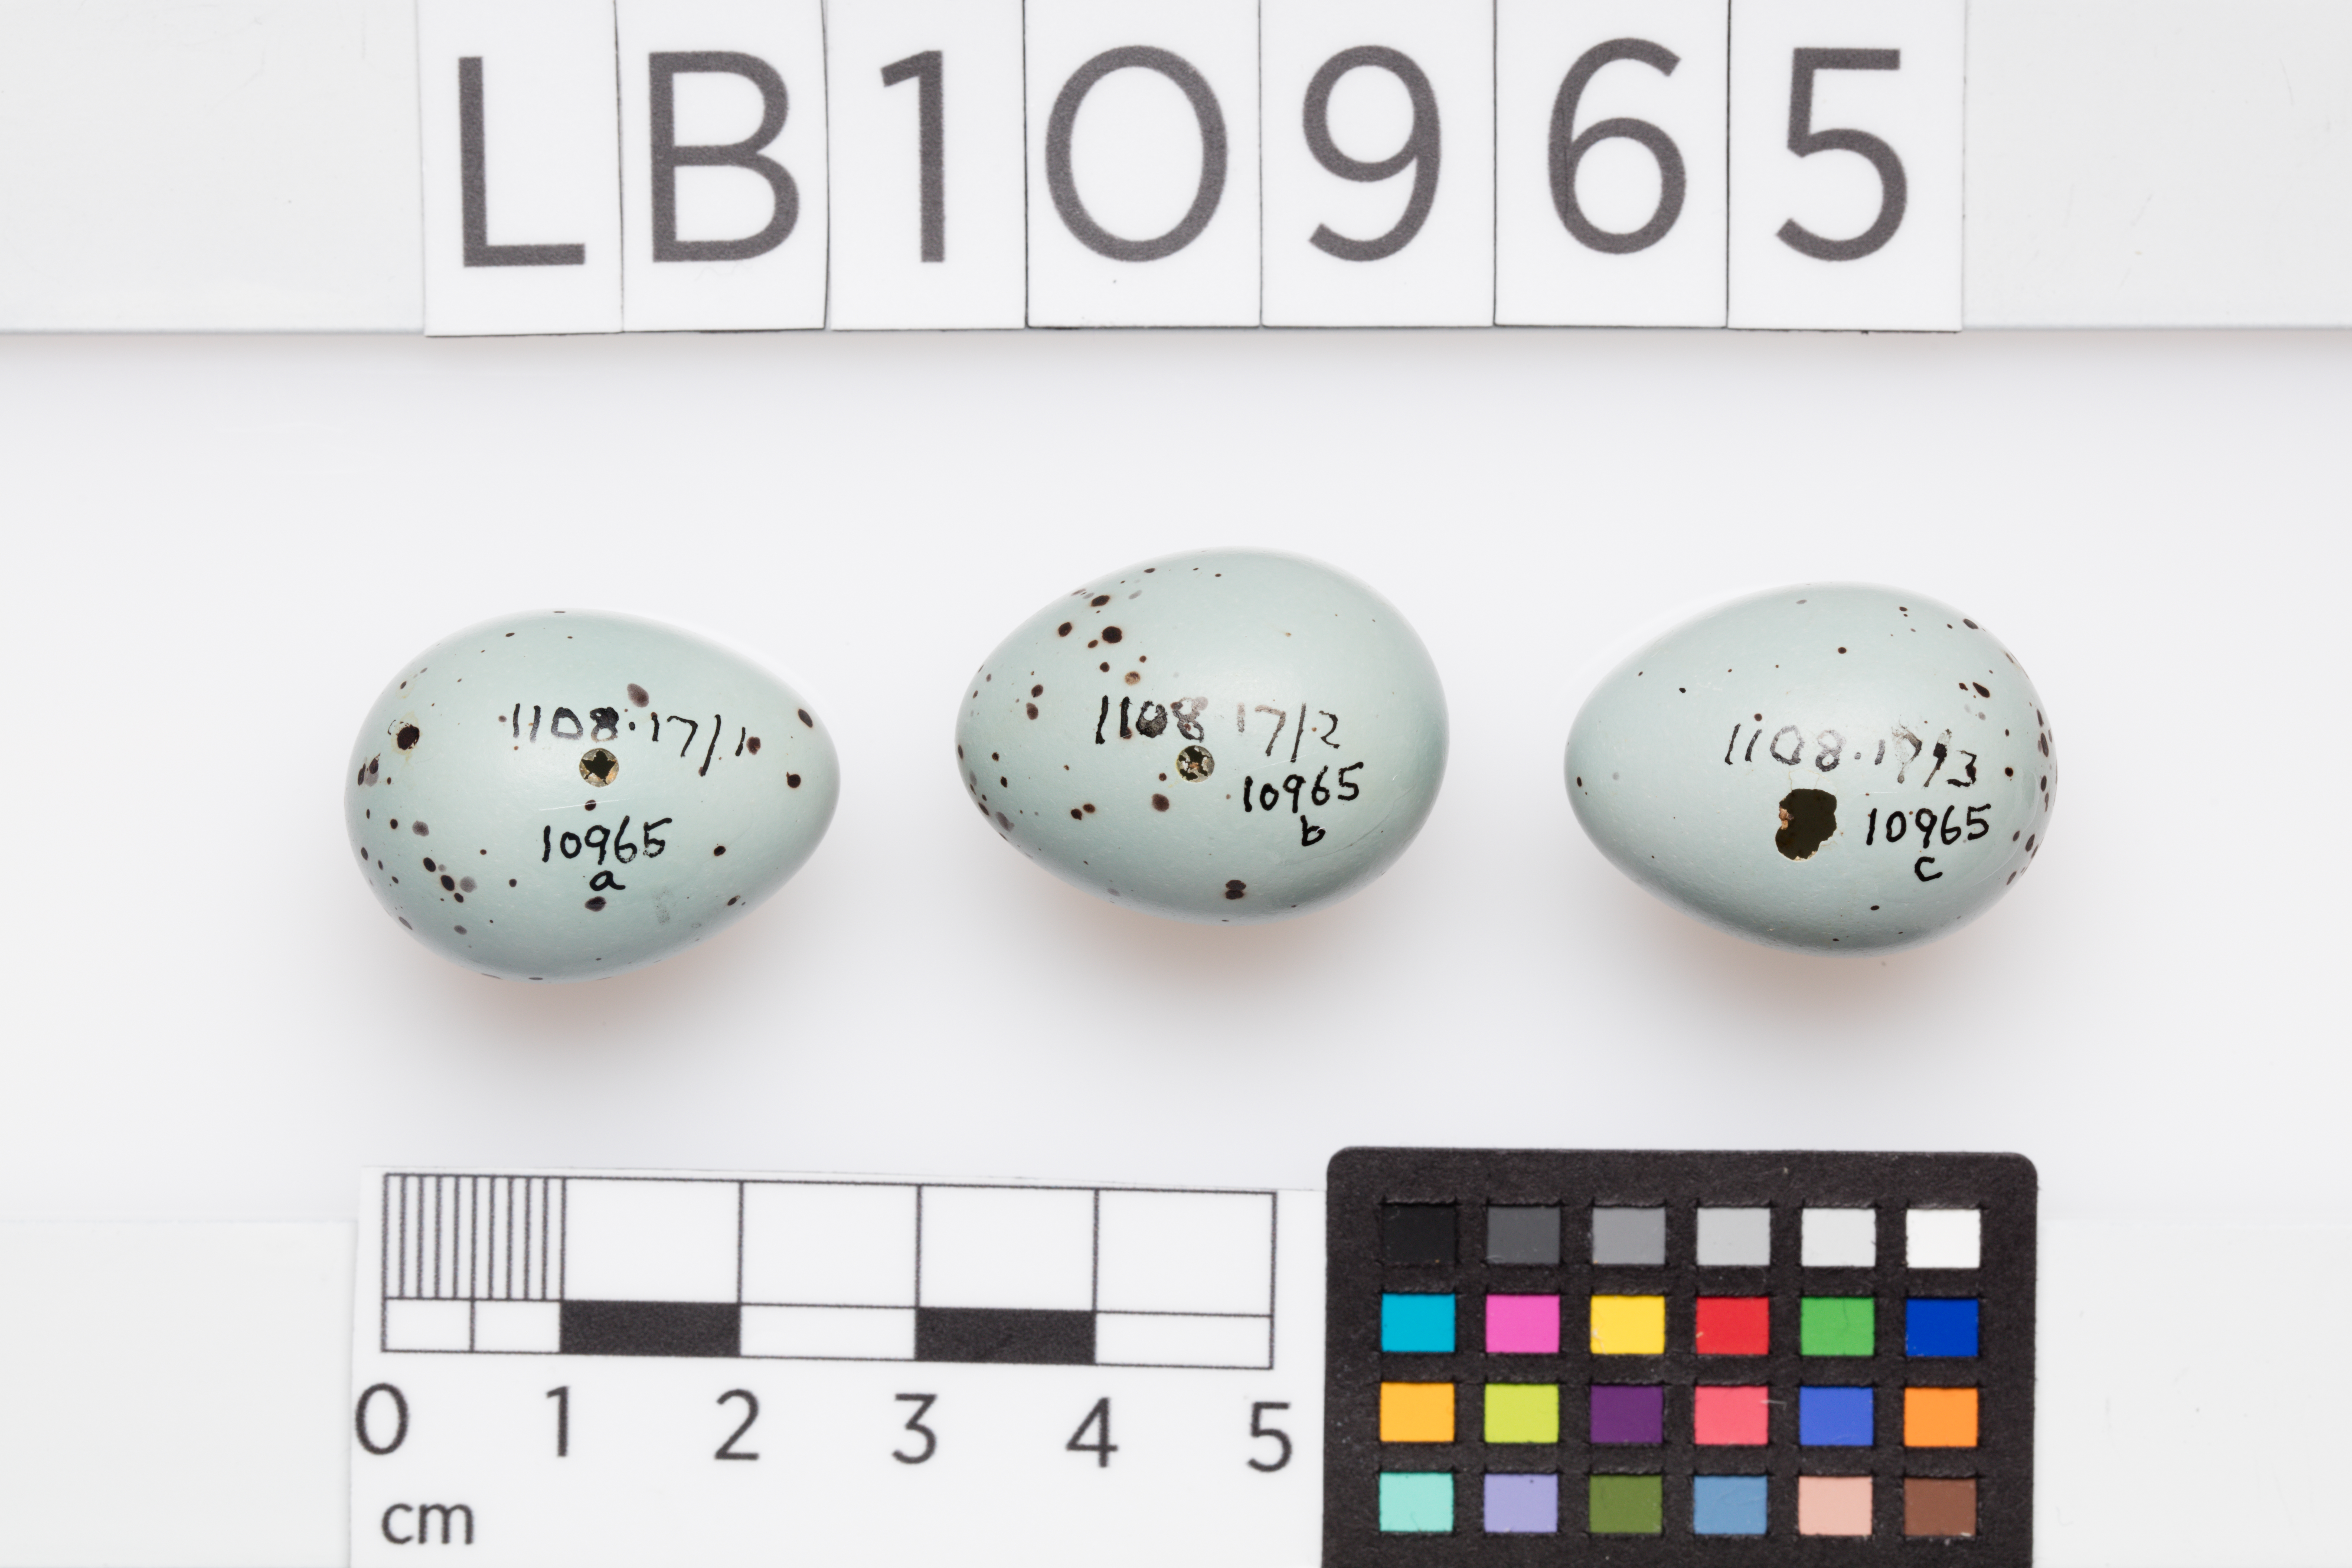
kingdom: Animalia
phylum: Chordata
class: Aves
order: Passeriformes
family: Turdidae
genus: Turdus
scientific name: Turdus philomelos
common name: Song thrush
